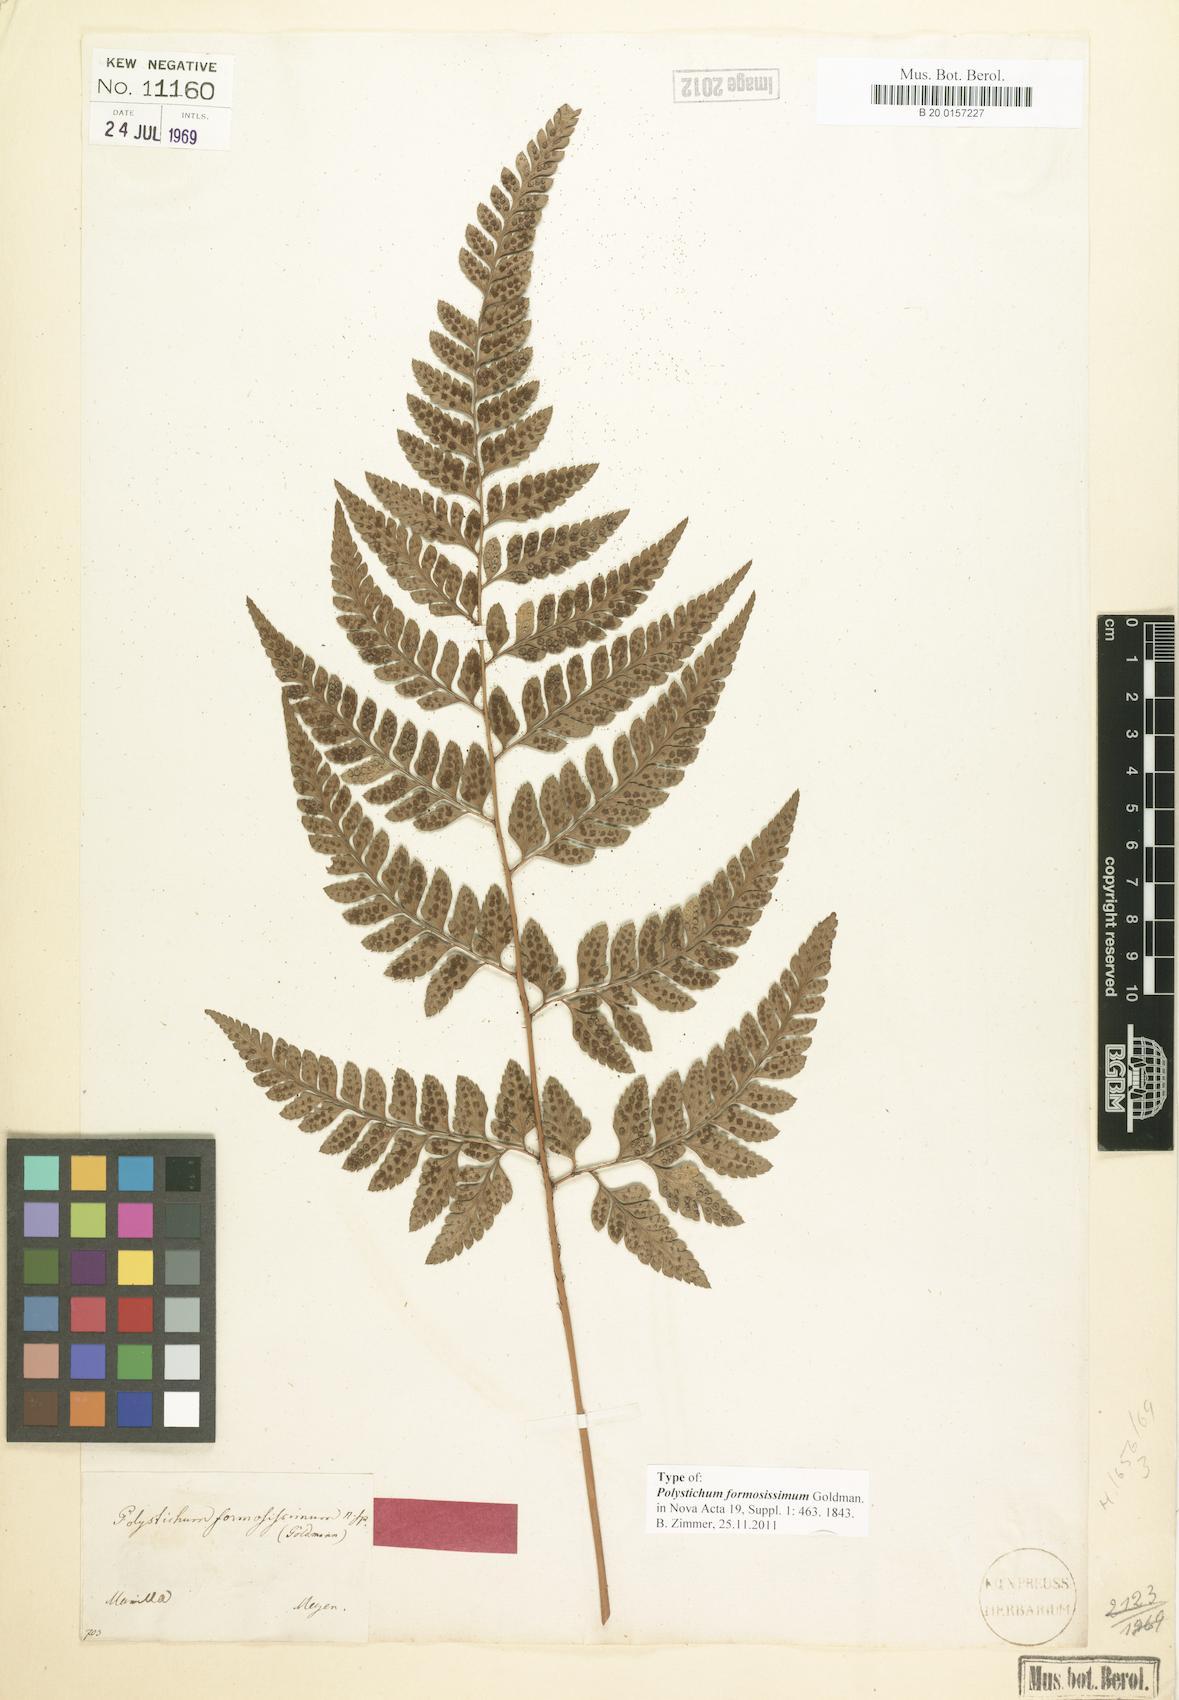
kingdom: Plantae
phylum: Tracheophyta
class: Polypodiopsida
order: Polypodiales
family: Dryopteridaceae
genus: Arachniodes
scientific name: Arachniodes formosissima
